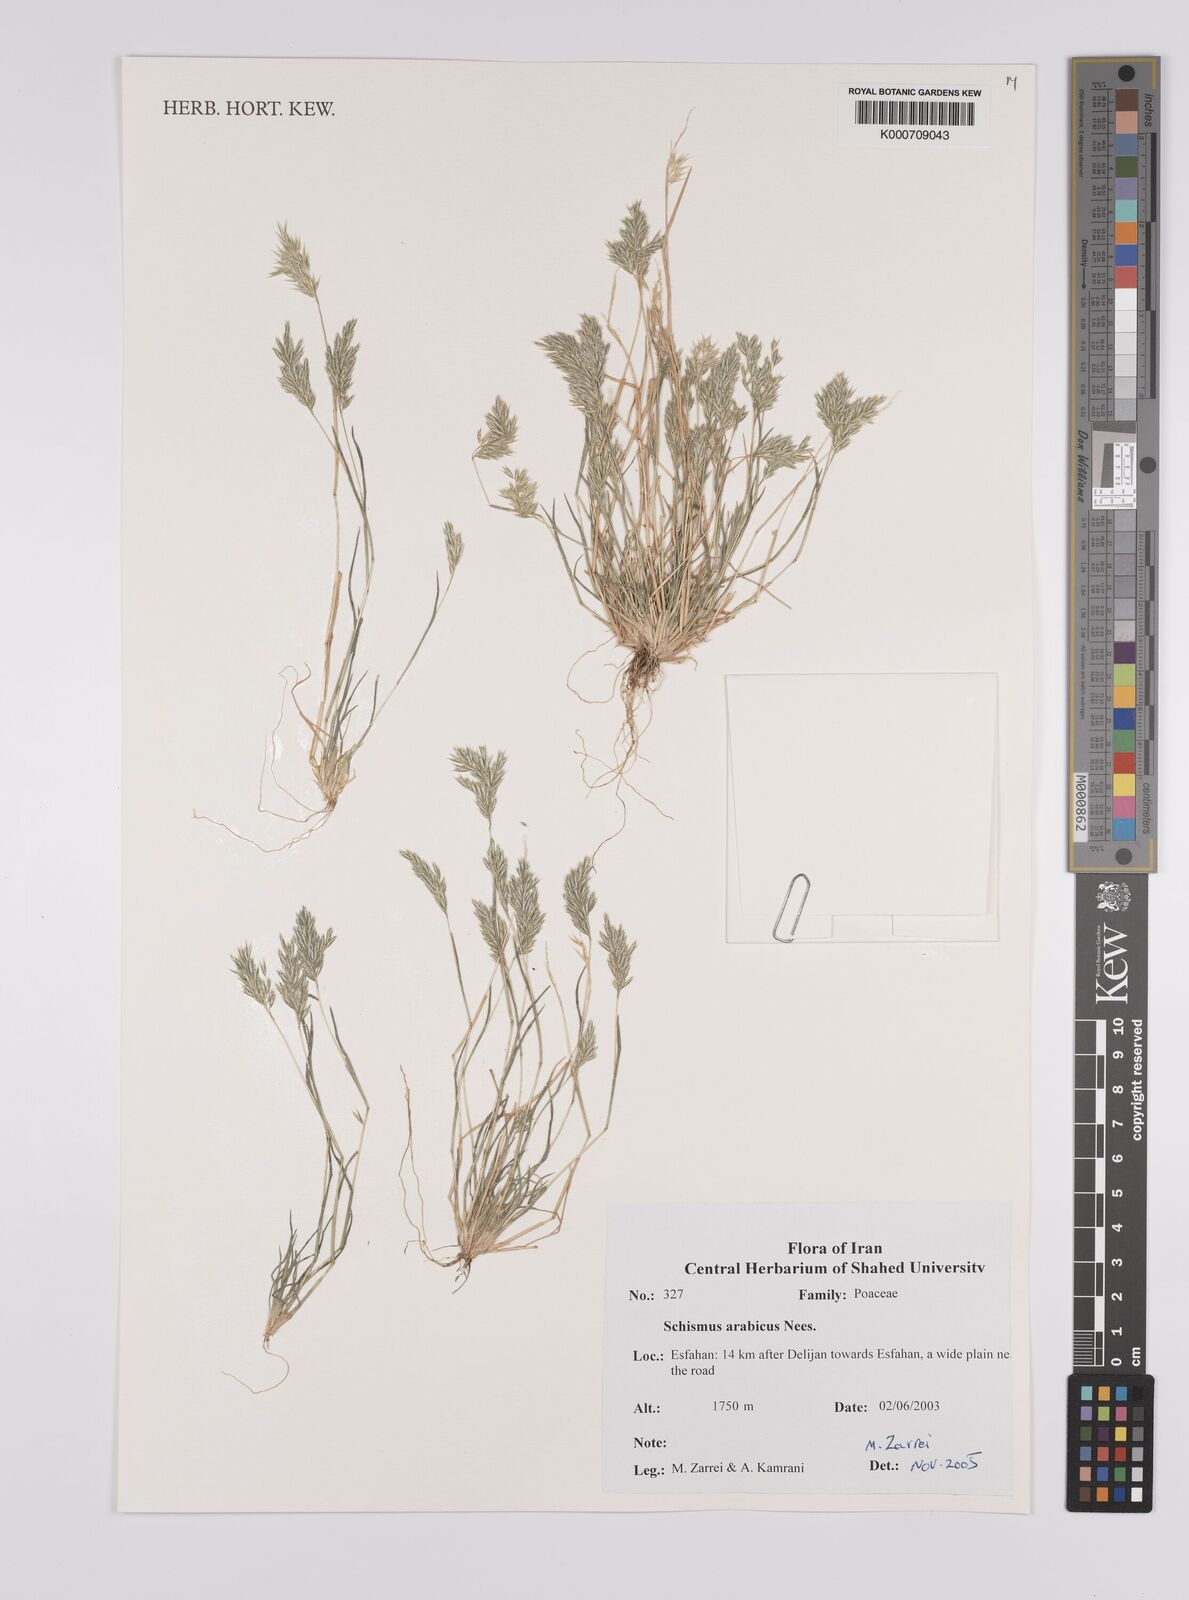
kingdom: Plantae
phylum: Tracheophyta
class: Liliopsida
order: Poales
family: Poaceae
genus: Schismus
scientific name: Schismus arabicus
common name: Arabian schismus
